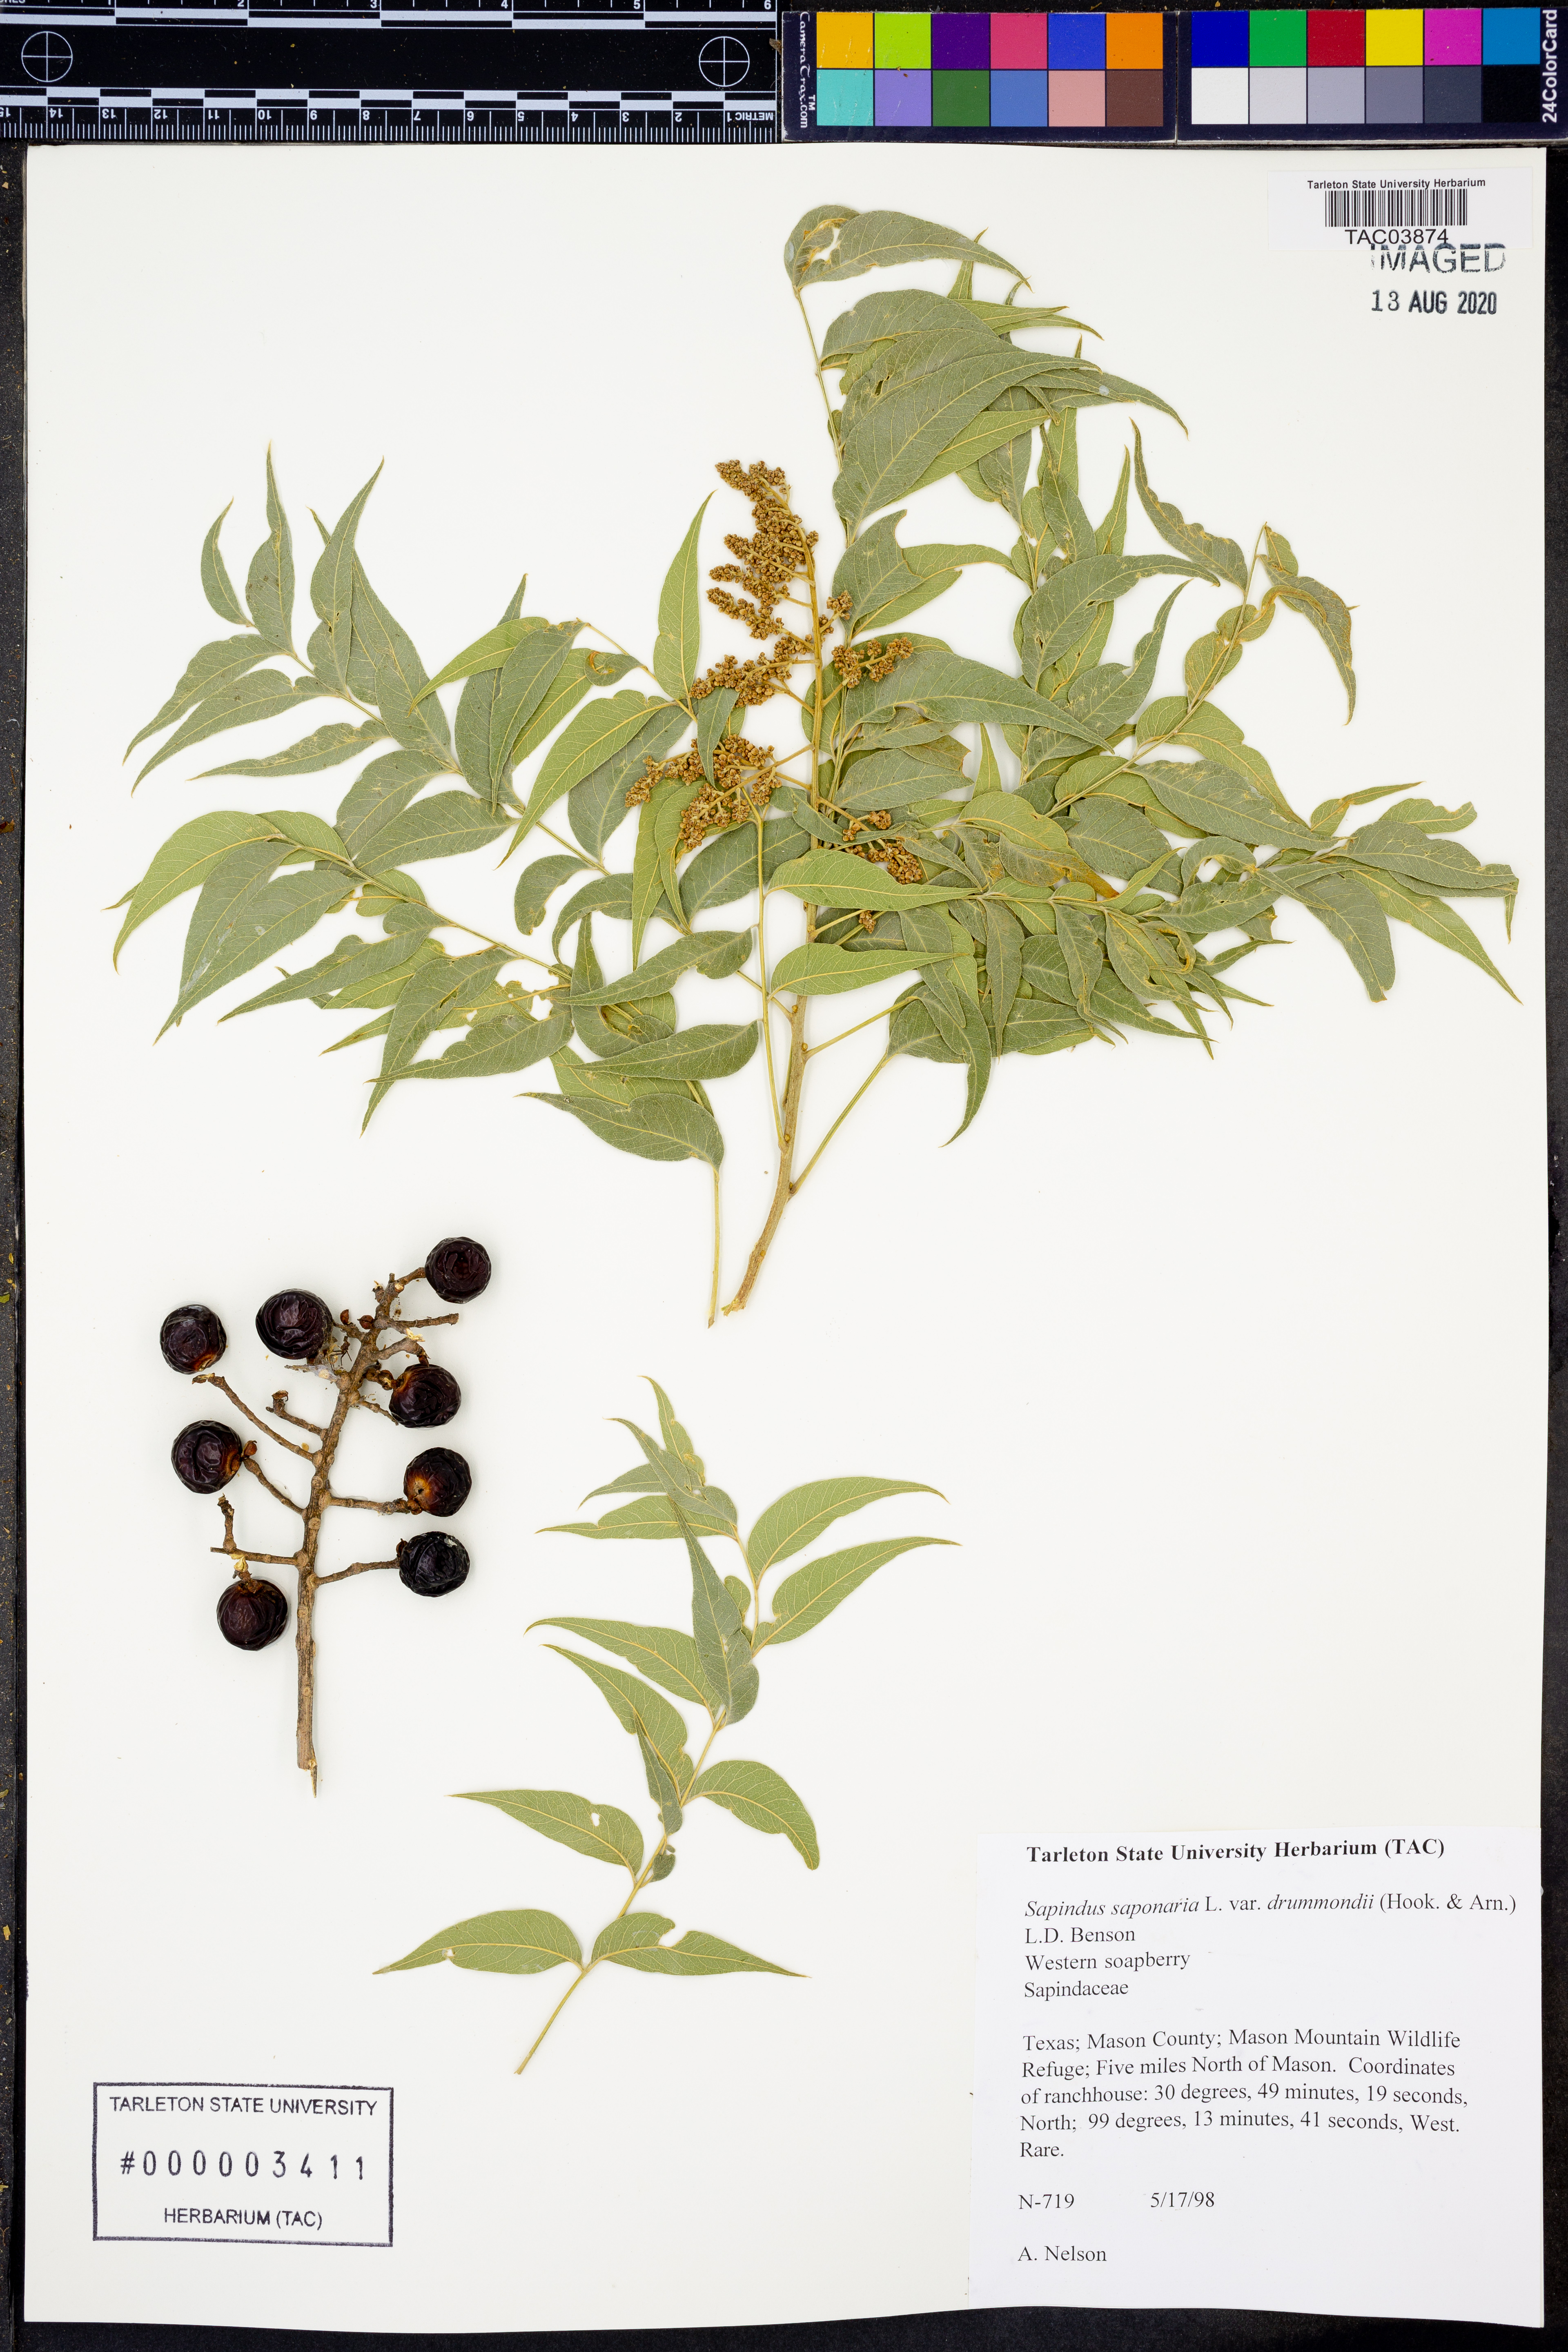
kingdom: Plantae
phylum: Tracheophyta
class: Magnoliopsida
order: Sapindales
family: Sapindaceae
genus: Sapindus
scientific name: Sapindus drummondii
